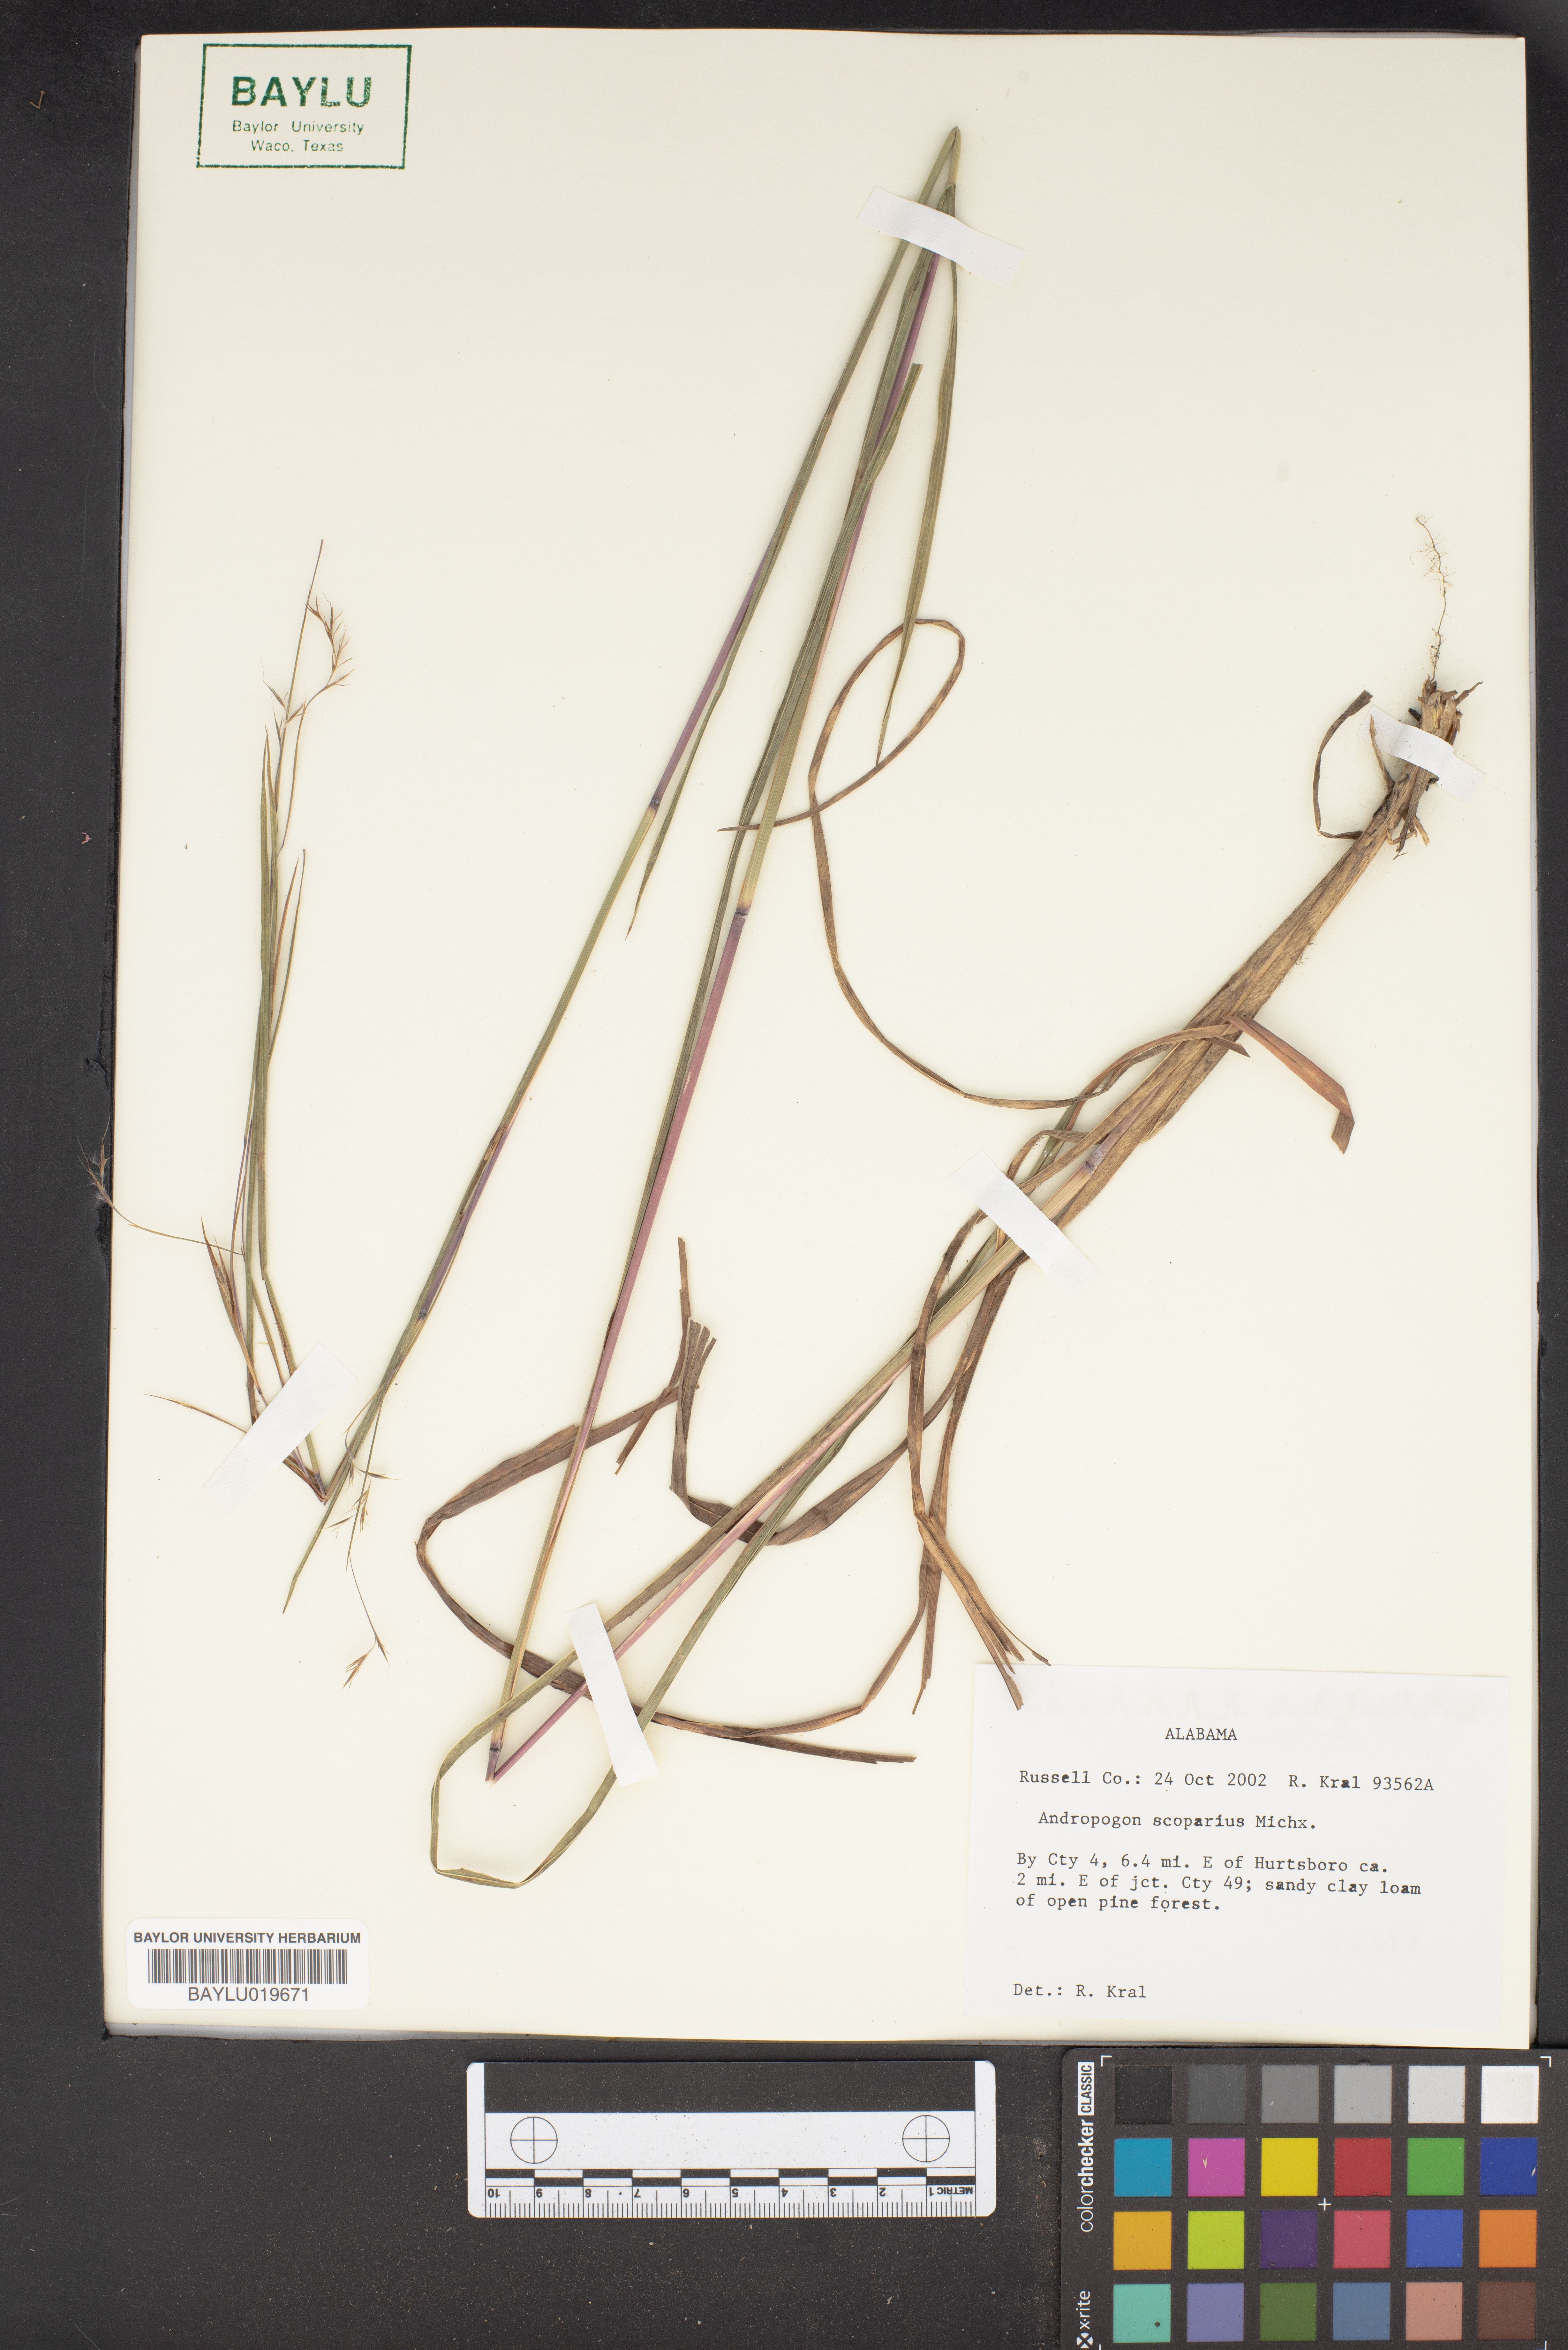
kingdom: Plantae
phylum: Tracheophyta
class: Liliopsida
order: Poales
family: Poaceae
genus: Schizachyrium
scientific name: Schizachyrium scoparium
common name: Little bluestem
